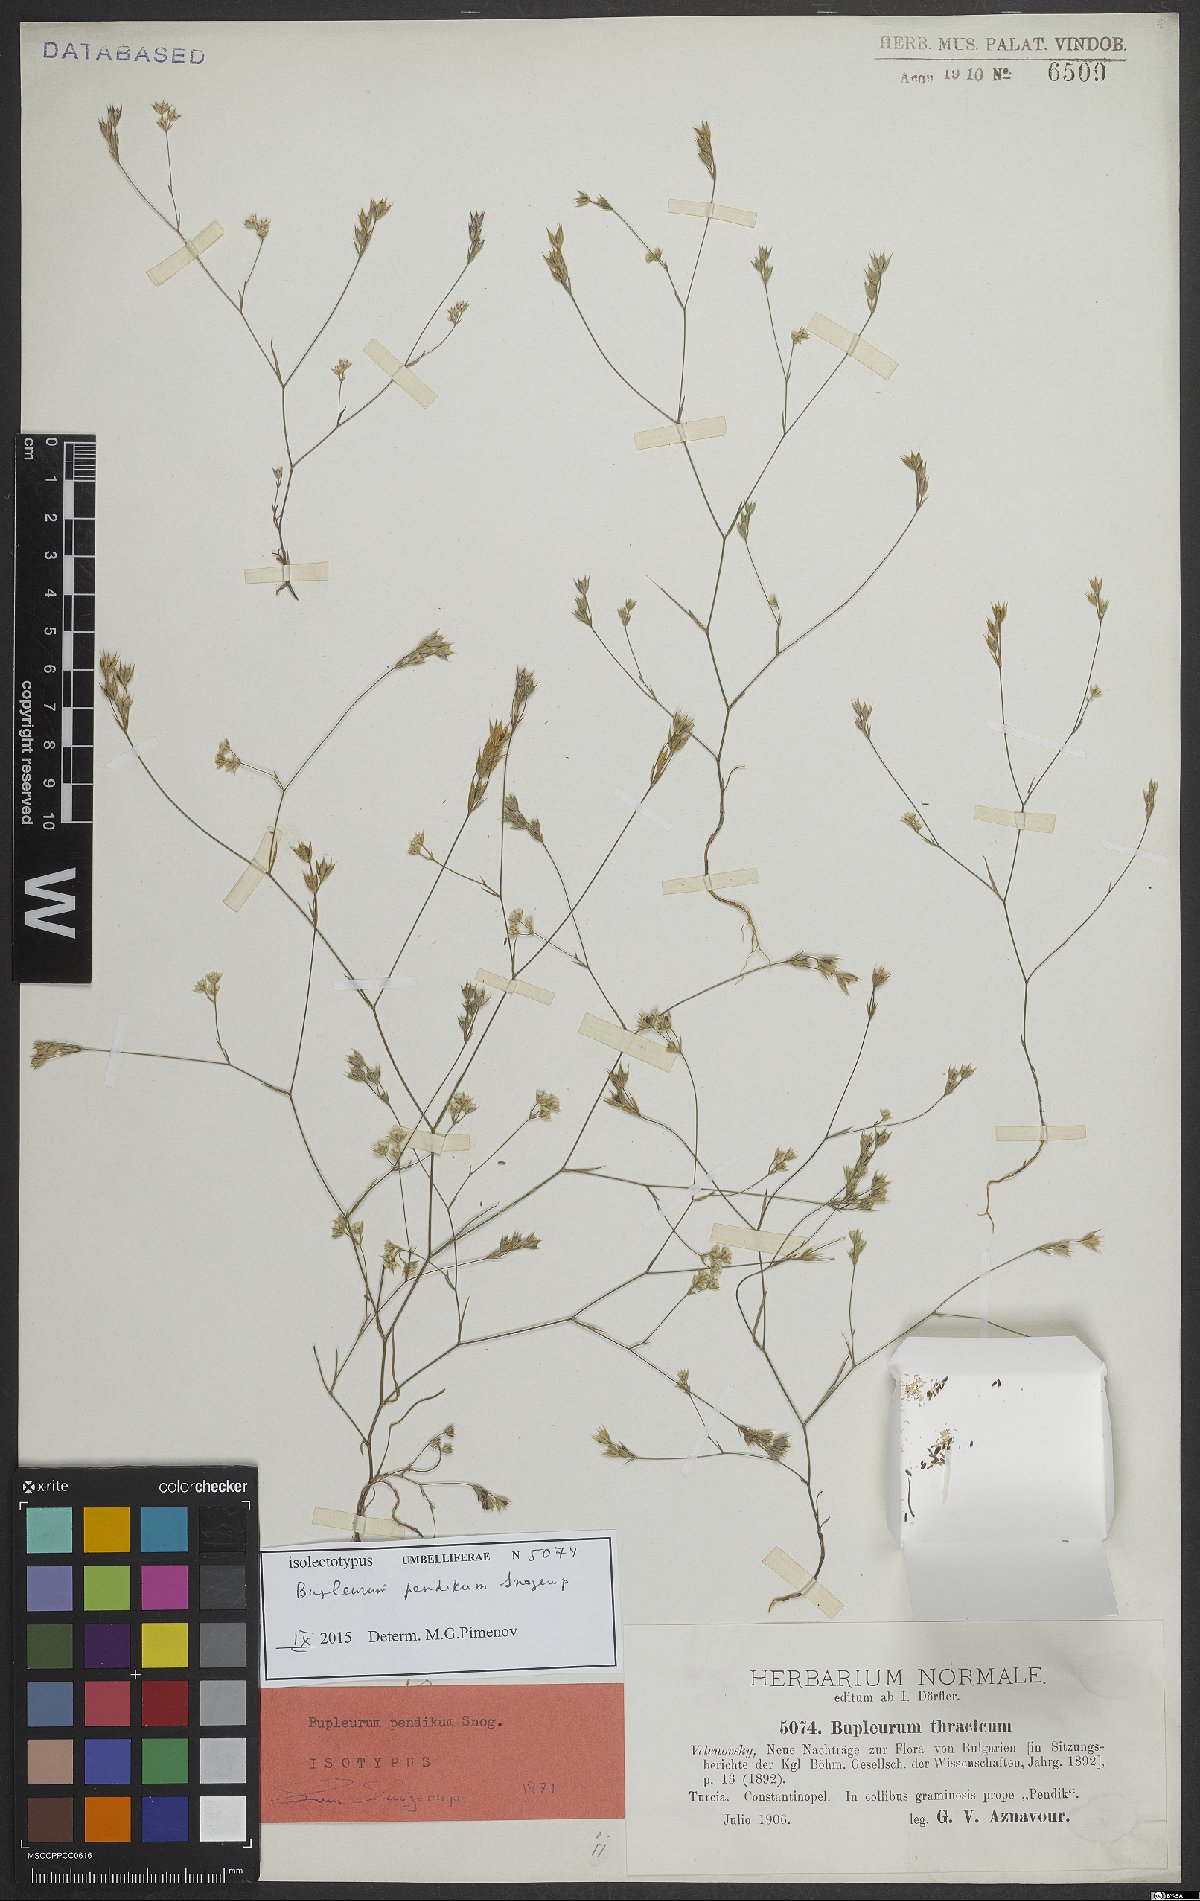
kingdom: Plantae
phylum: Tracheophyta
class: Magnoliopsida
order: Apiales
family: Apiaceae
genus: Bupleurum
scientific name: Bupleurum pendikum
